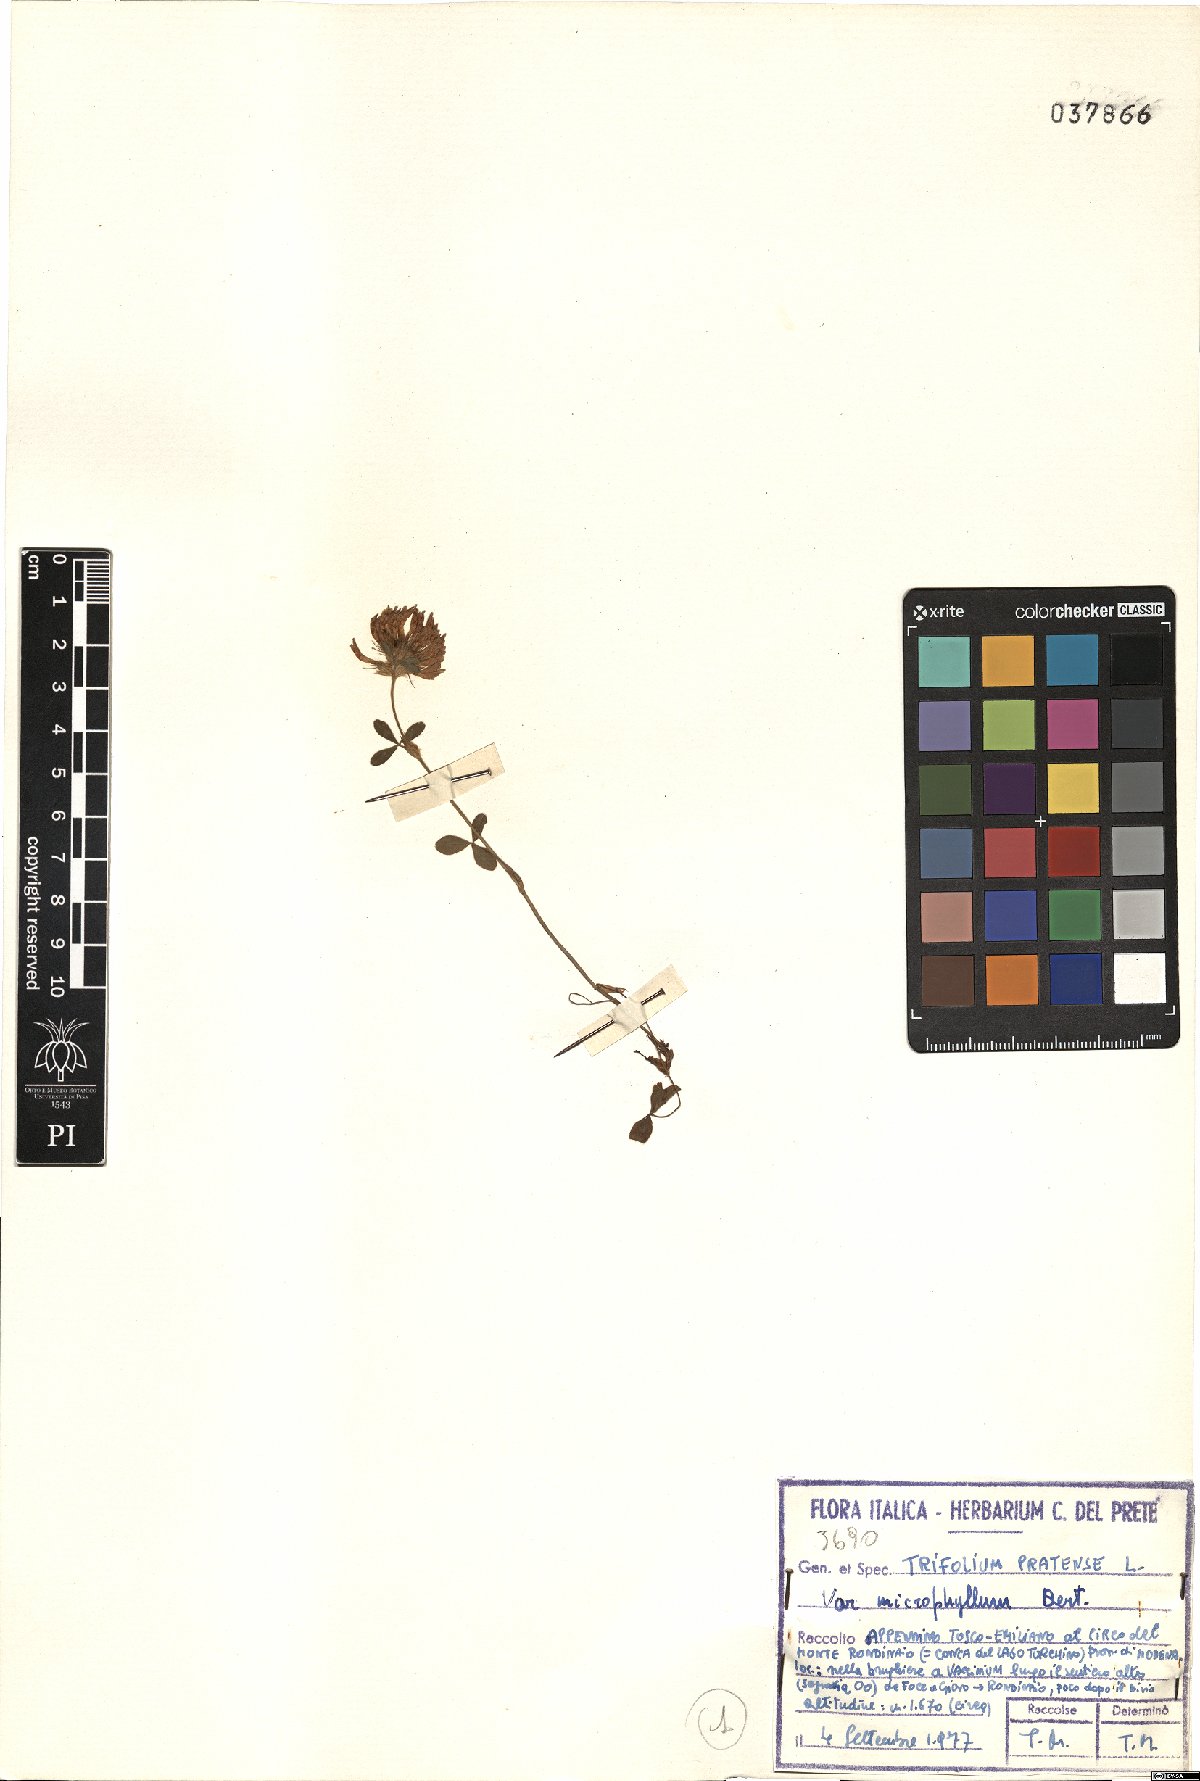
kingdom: Plantae
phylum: Tracheophyta
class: Magnoliopsida
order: Fabales
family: Fabaceae
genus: Trifolium
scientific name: Trifolium pratense
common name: Red clover
